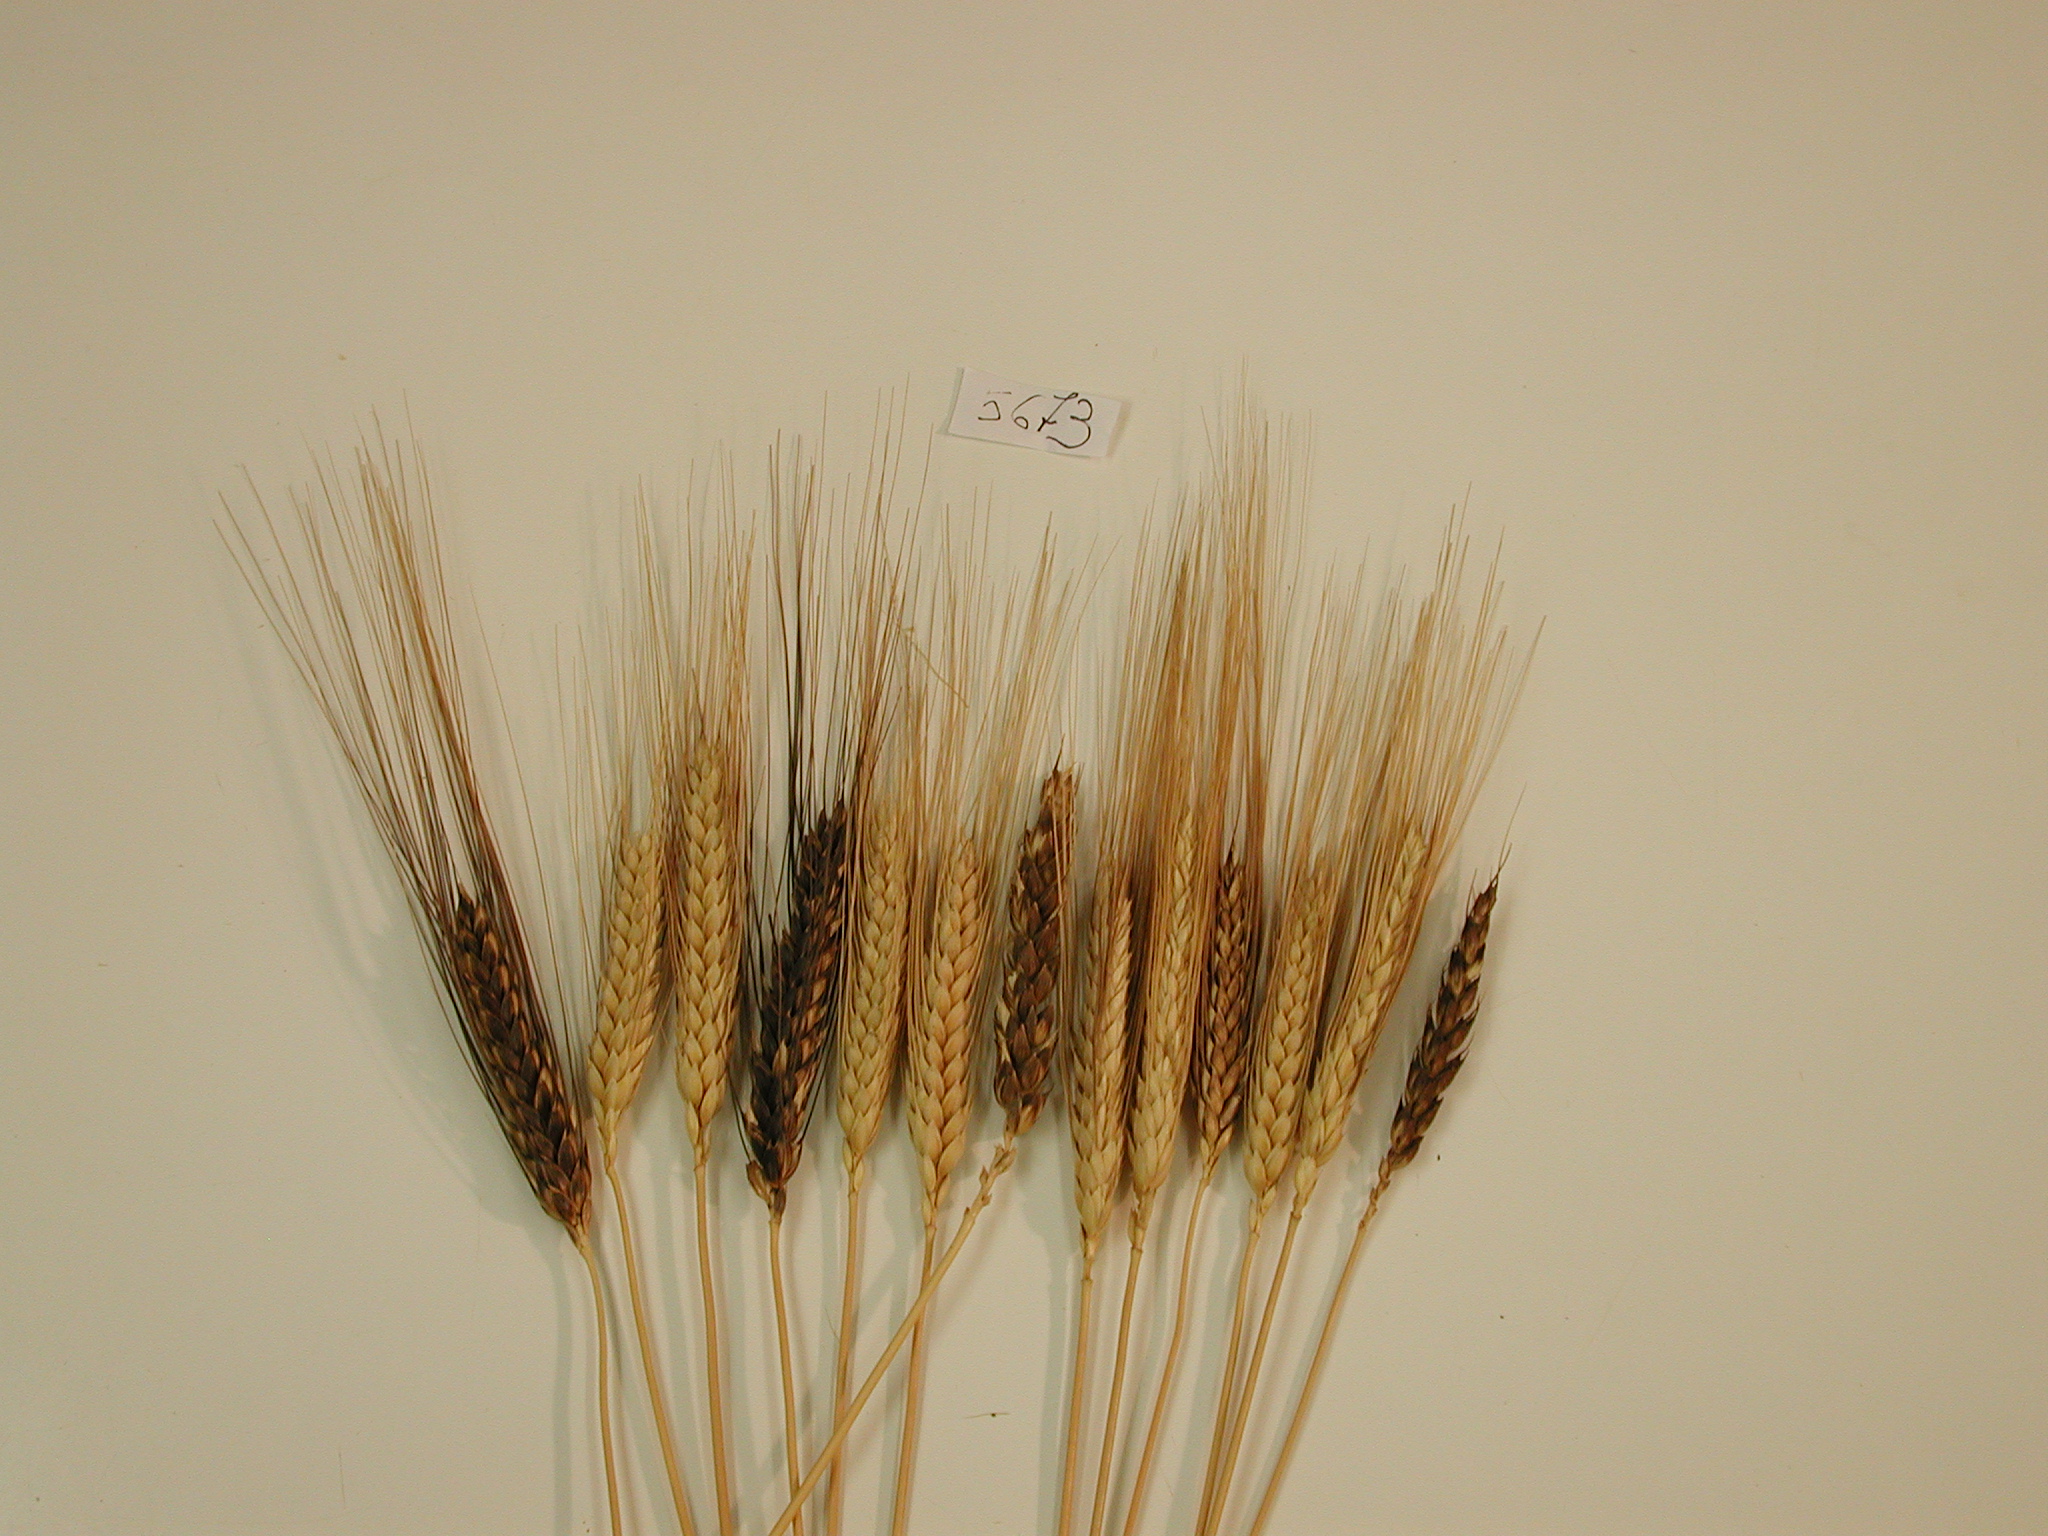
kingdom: Plantae
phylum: Tracheophyta
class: Liliopsida
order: Poales
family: Poaceae
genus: Triticum
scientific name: Triticum aestivum
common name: Wheat
